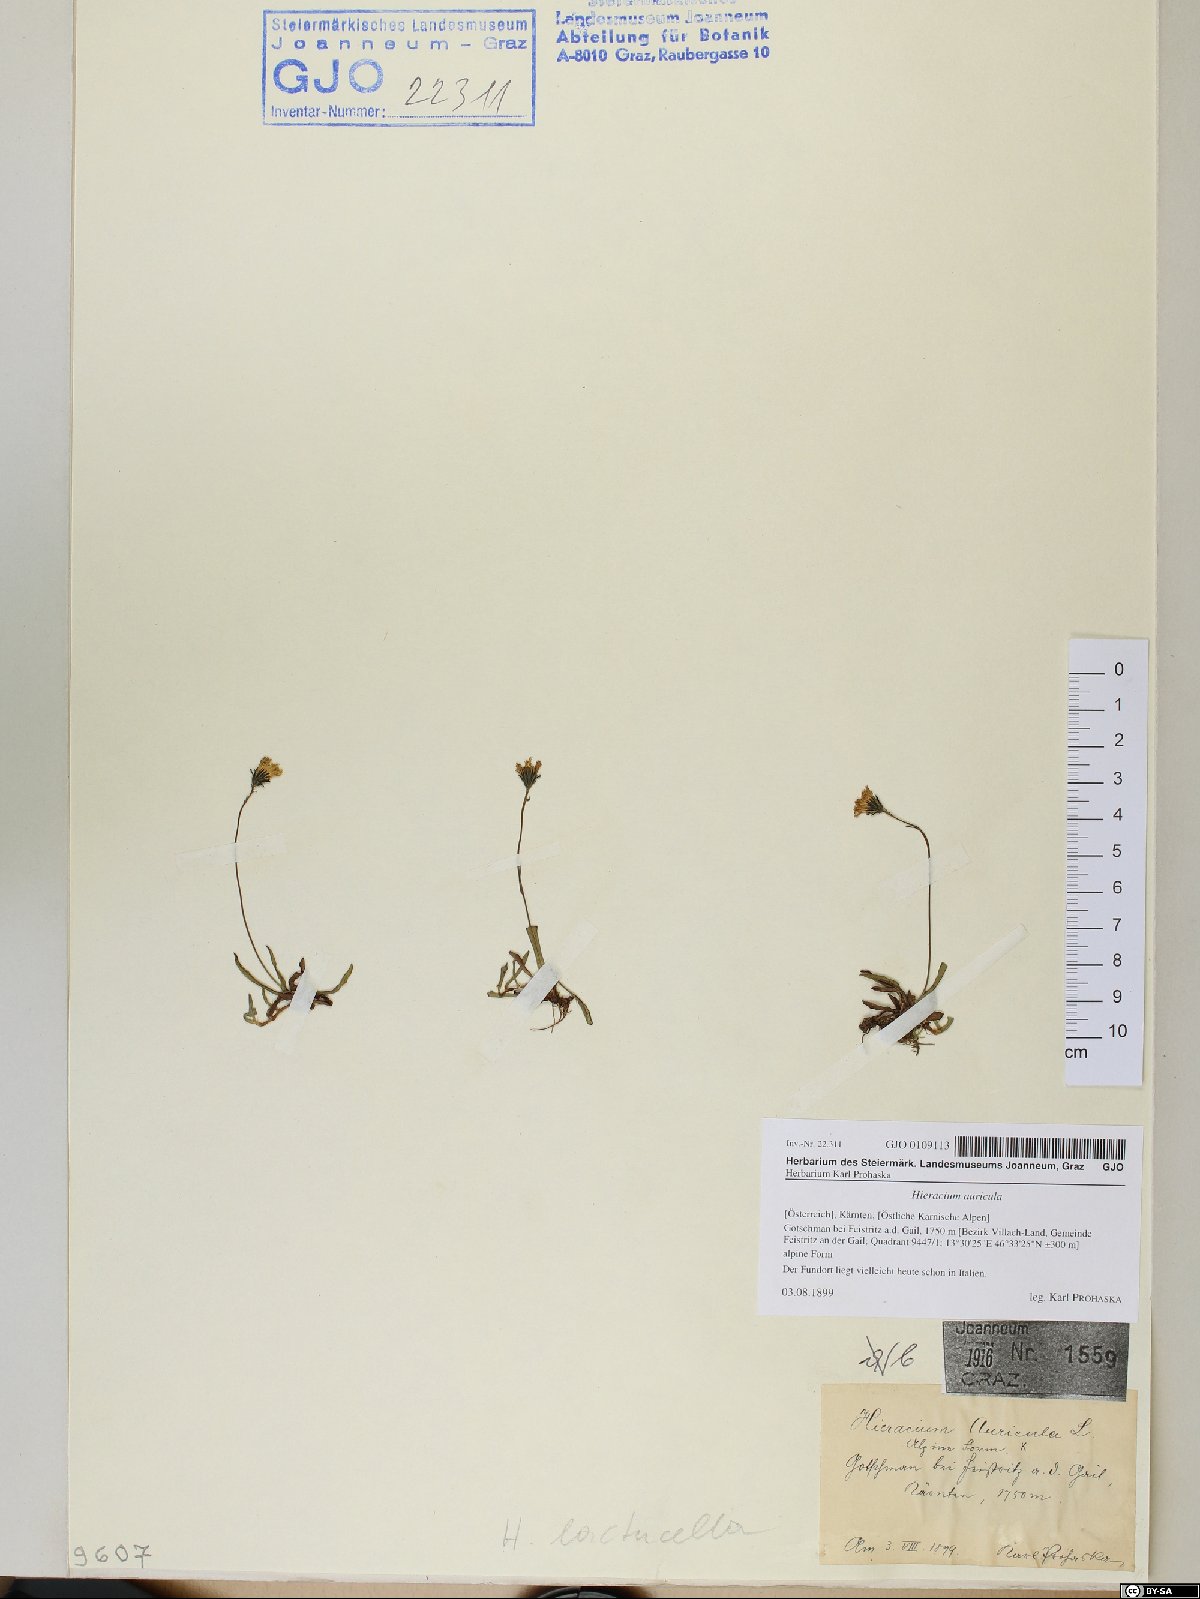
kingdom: Plantae
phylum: Tracheophyta
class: Magnoliopsida
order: Asterales
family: Asteraceae
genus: Hieracium
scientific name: Hieracium auricula
